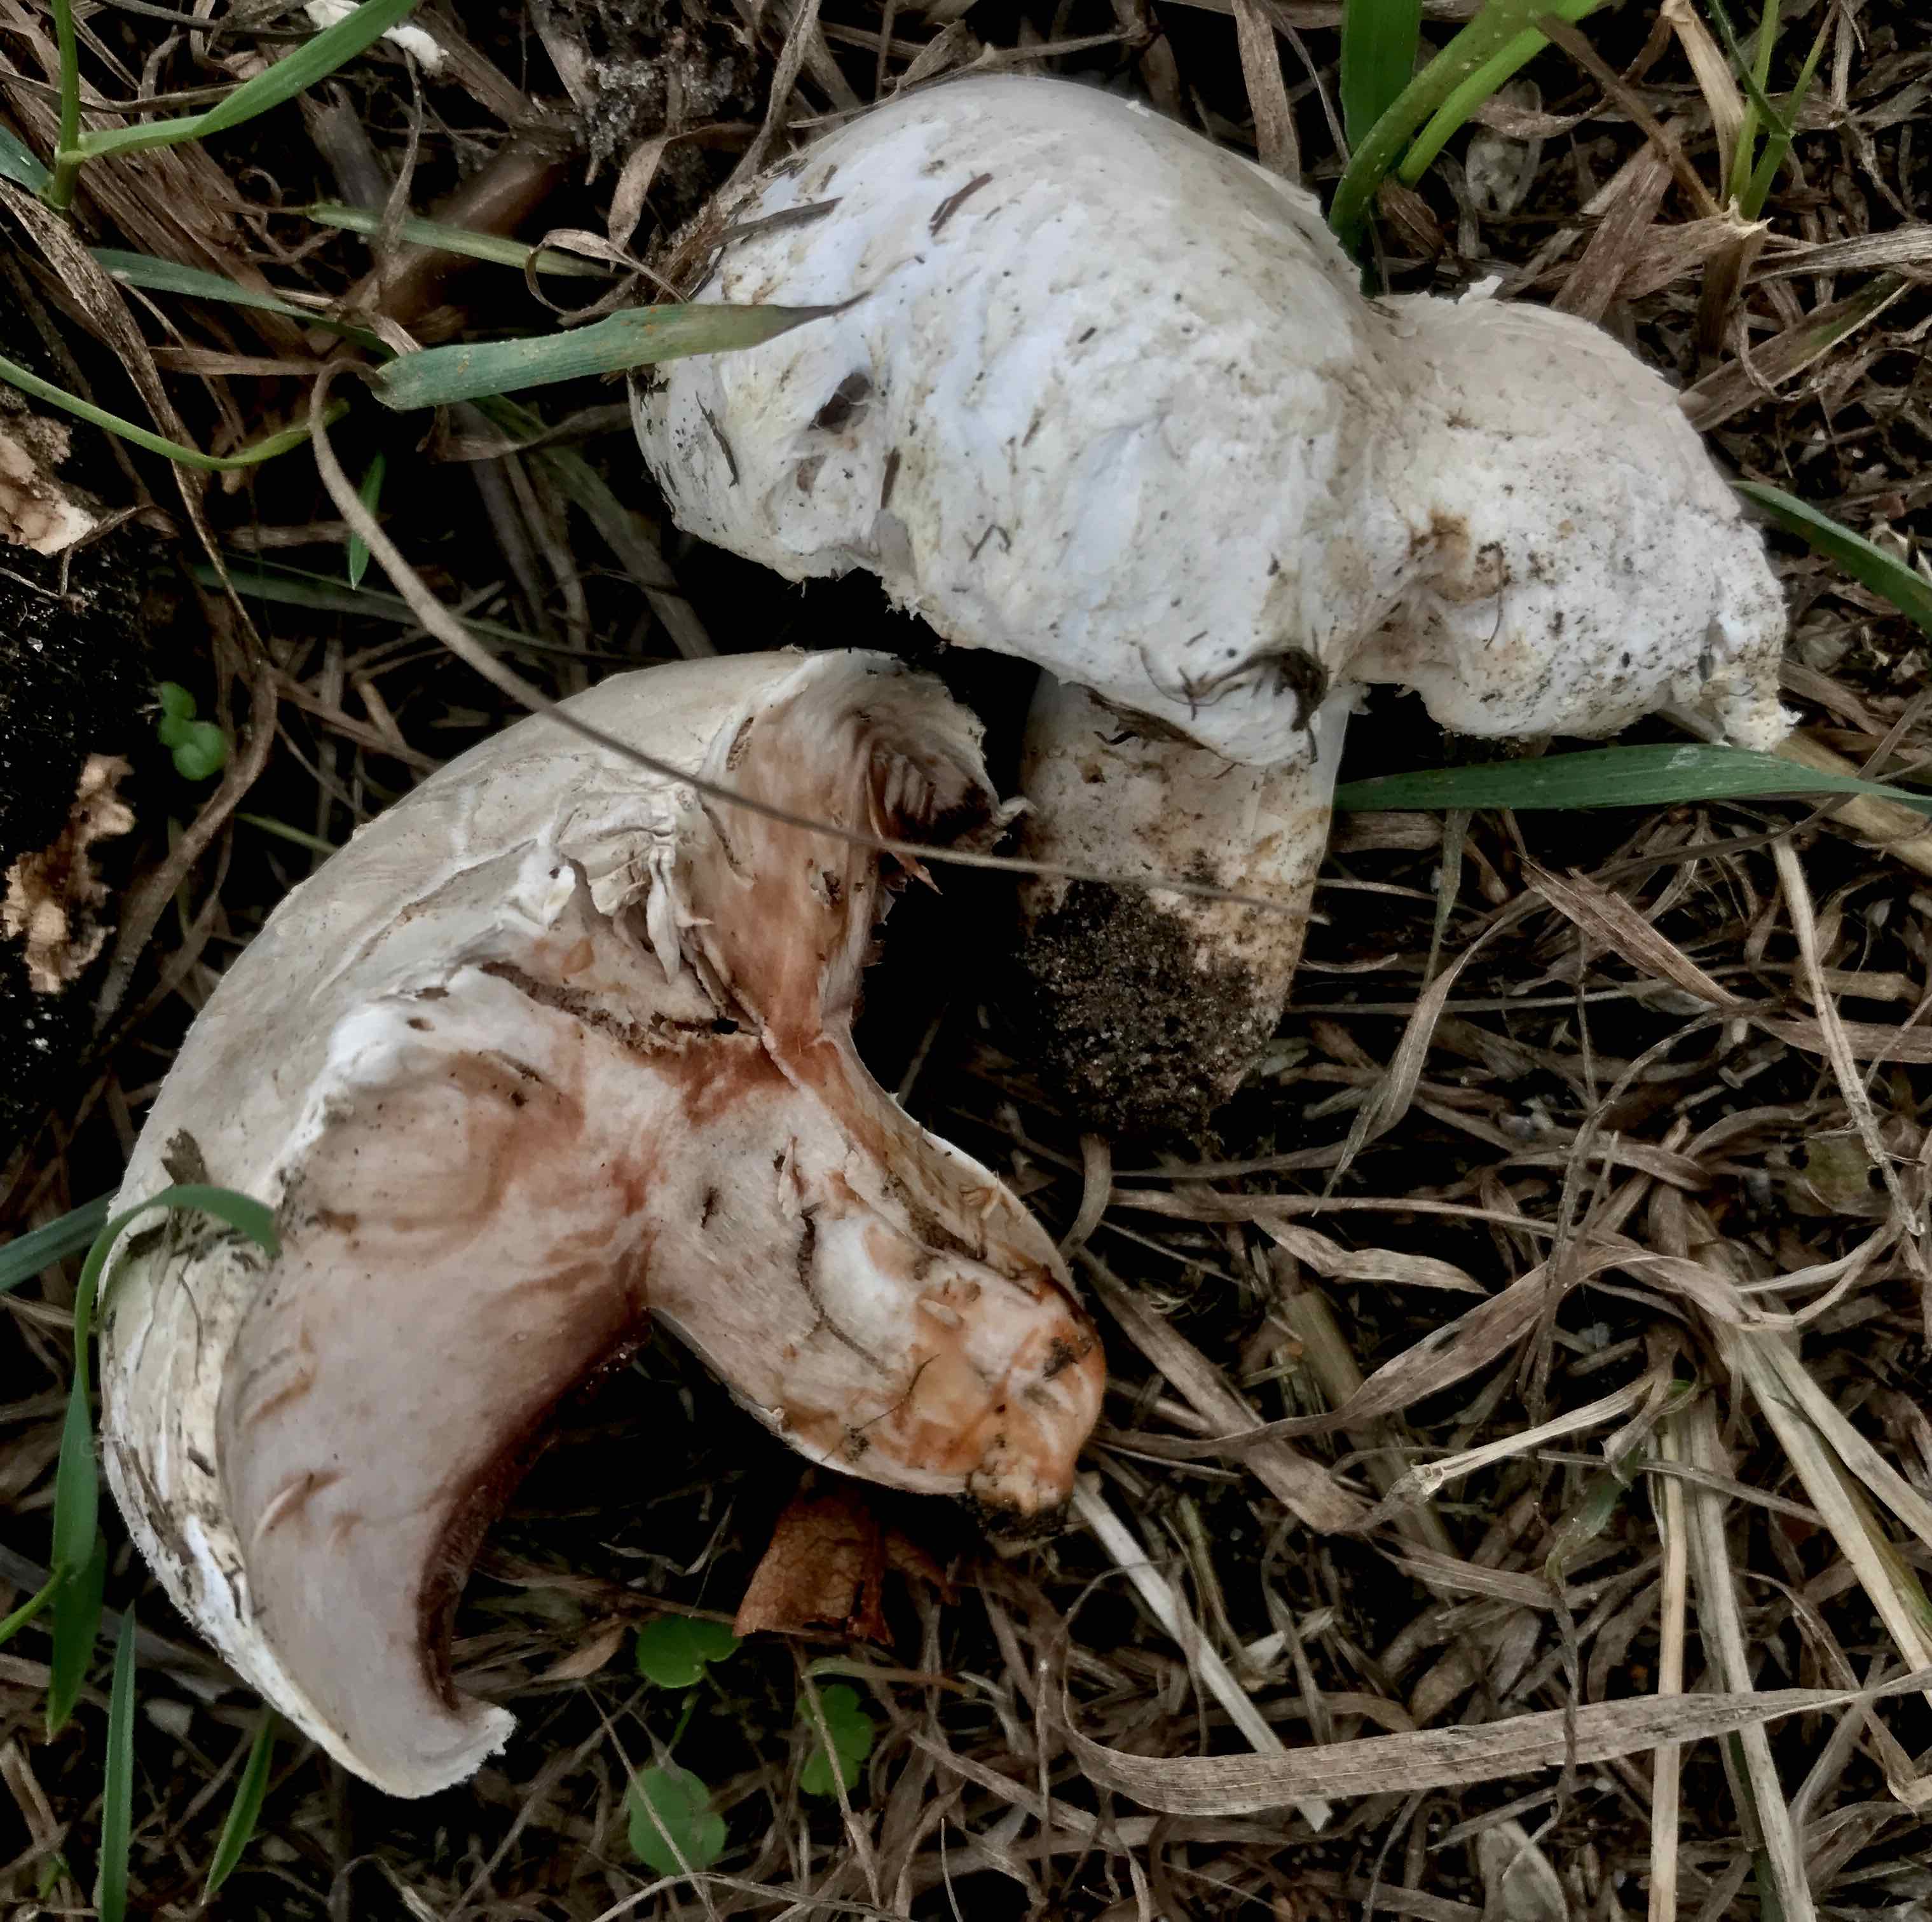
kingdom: Fungi
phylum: Basidiomycota
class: Agaricomycetes
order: Agaricales
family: Agaricaceae
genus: Agaricus
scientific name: Agaricus bernardii
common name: strandengs-champignon
